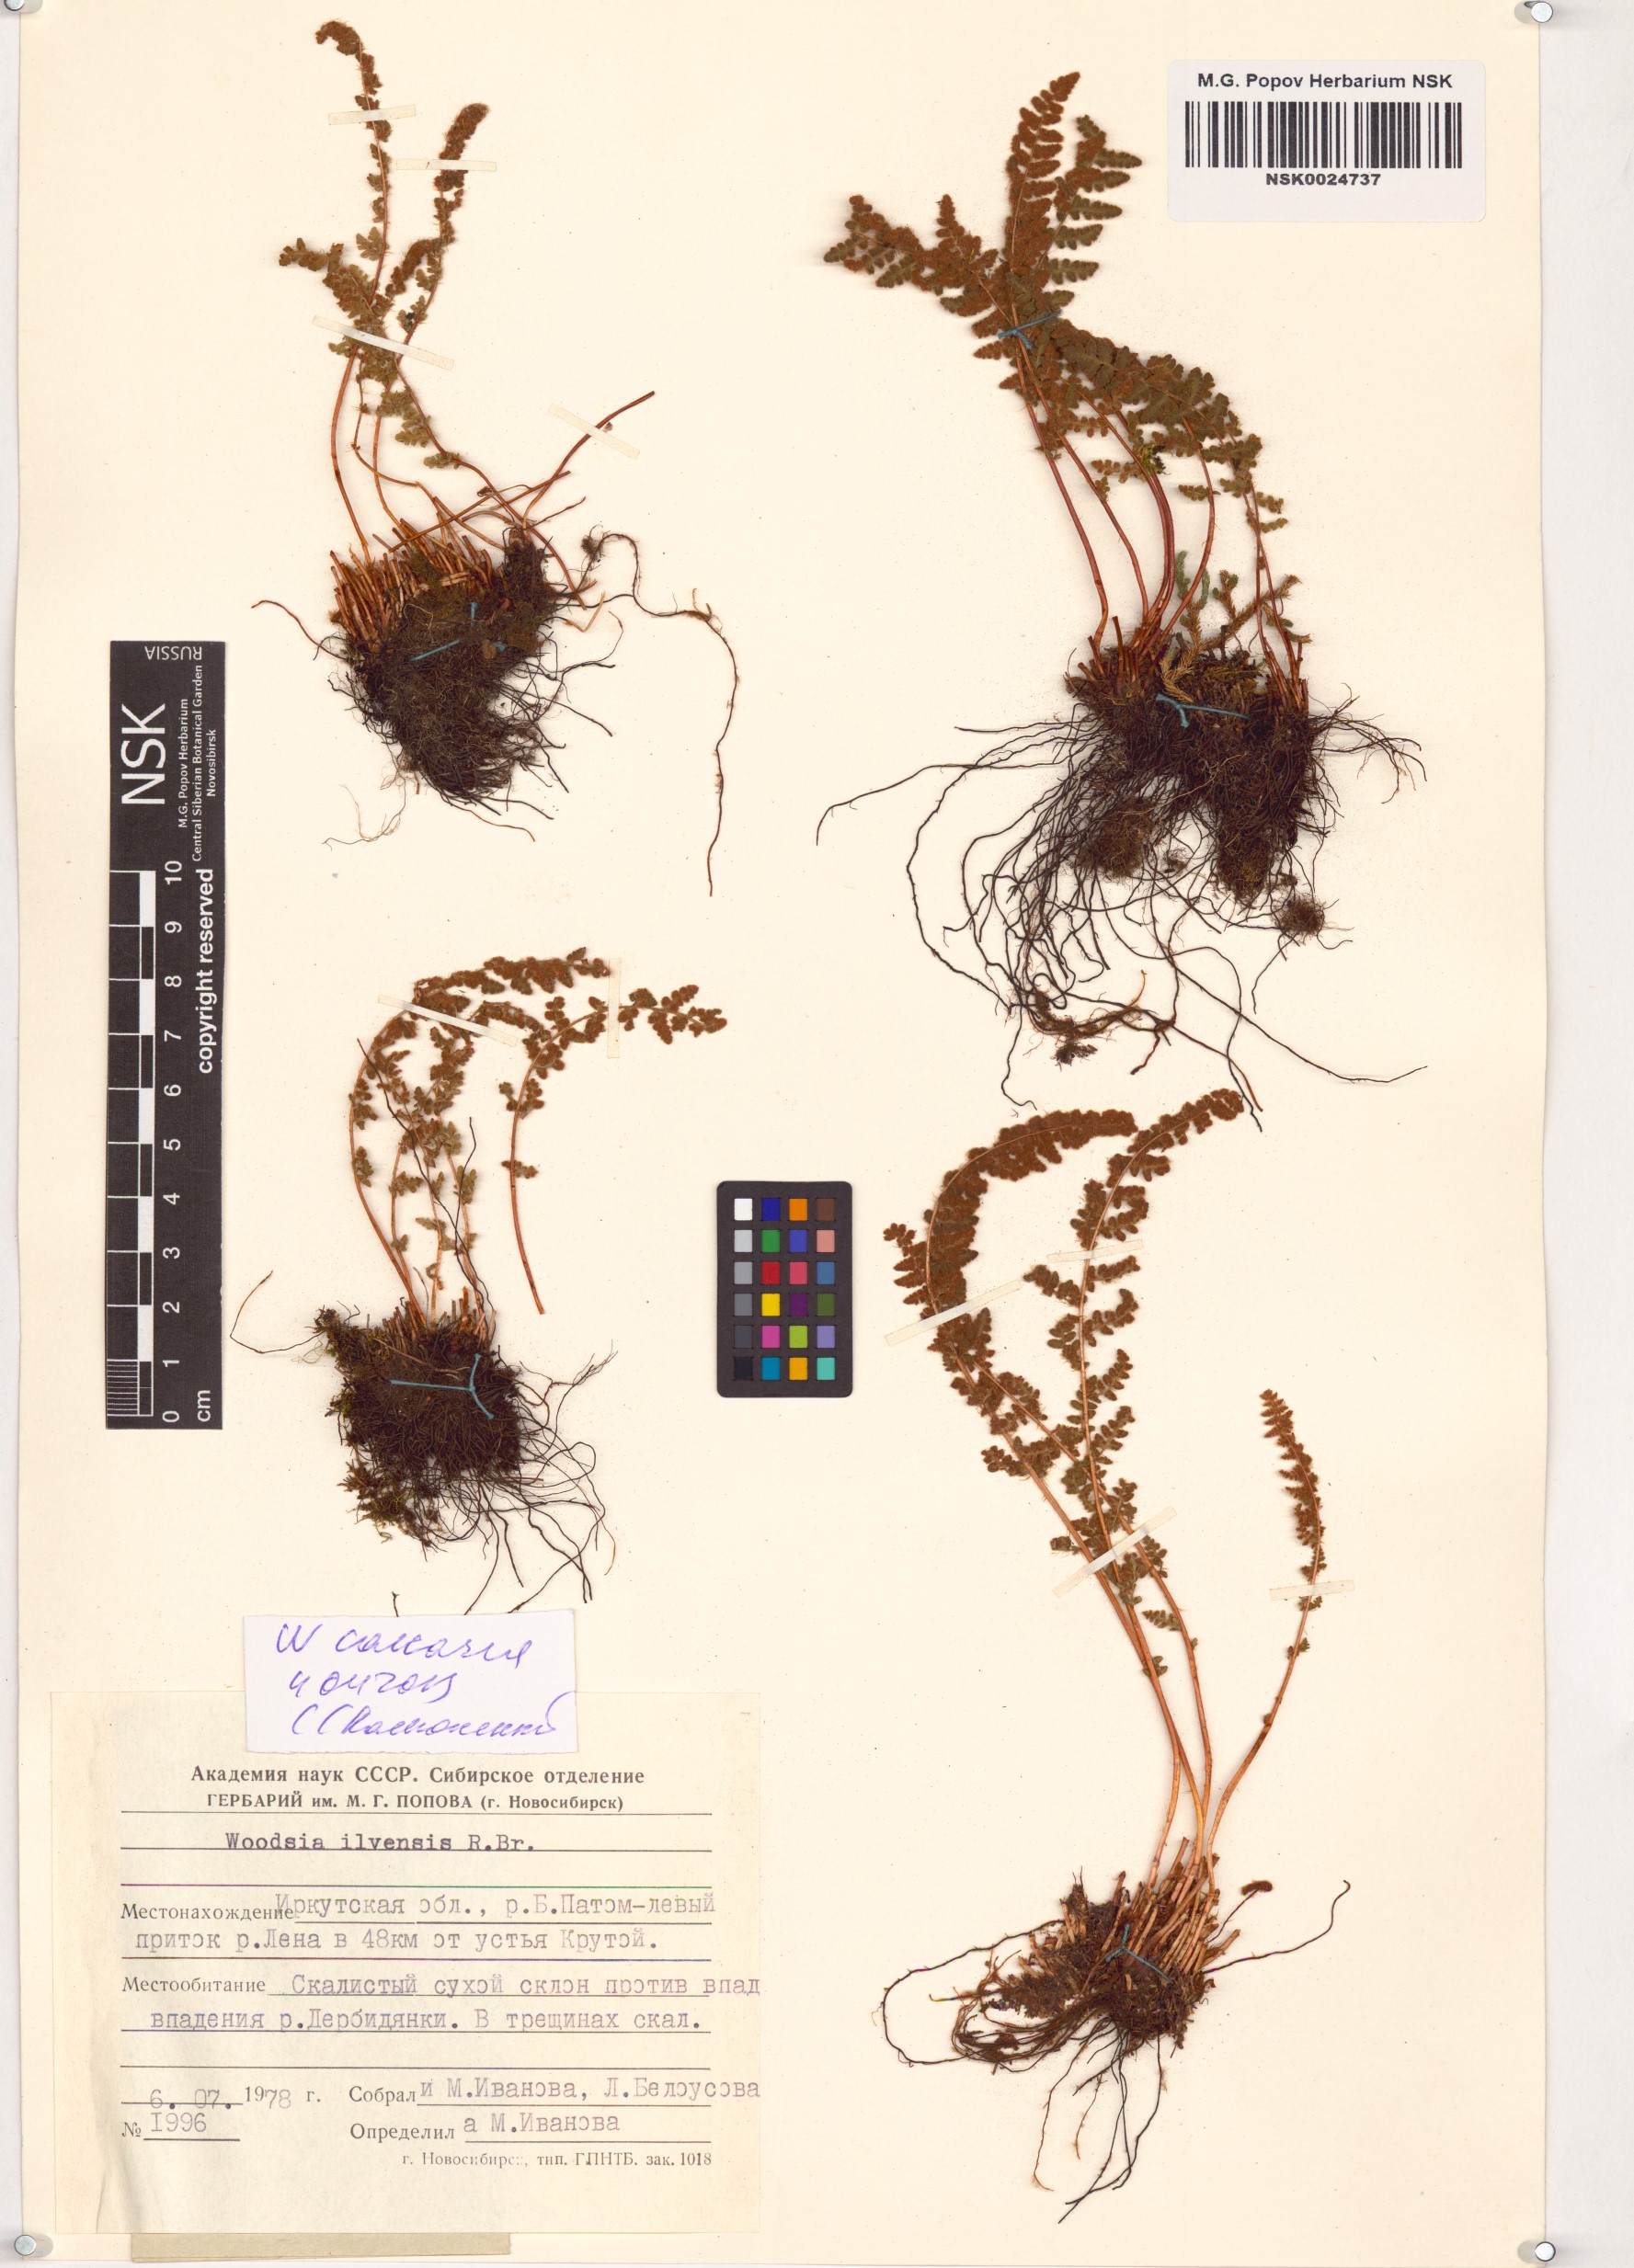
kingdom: Plantae
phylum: Tracheophyta
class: Polypodiopsida
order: Polypodiales
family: Woodsiaceae
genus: Woodsia
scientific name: Woodsia calcarea
